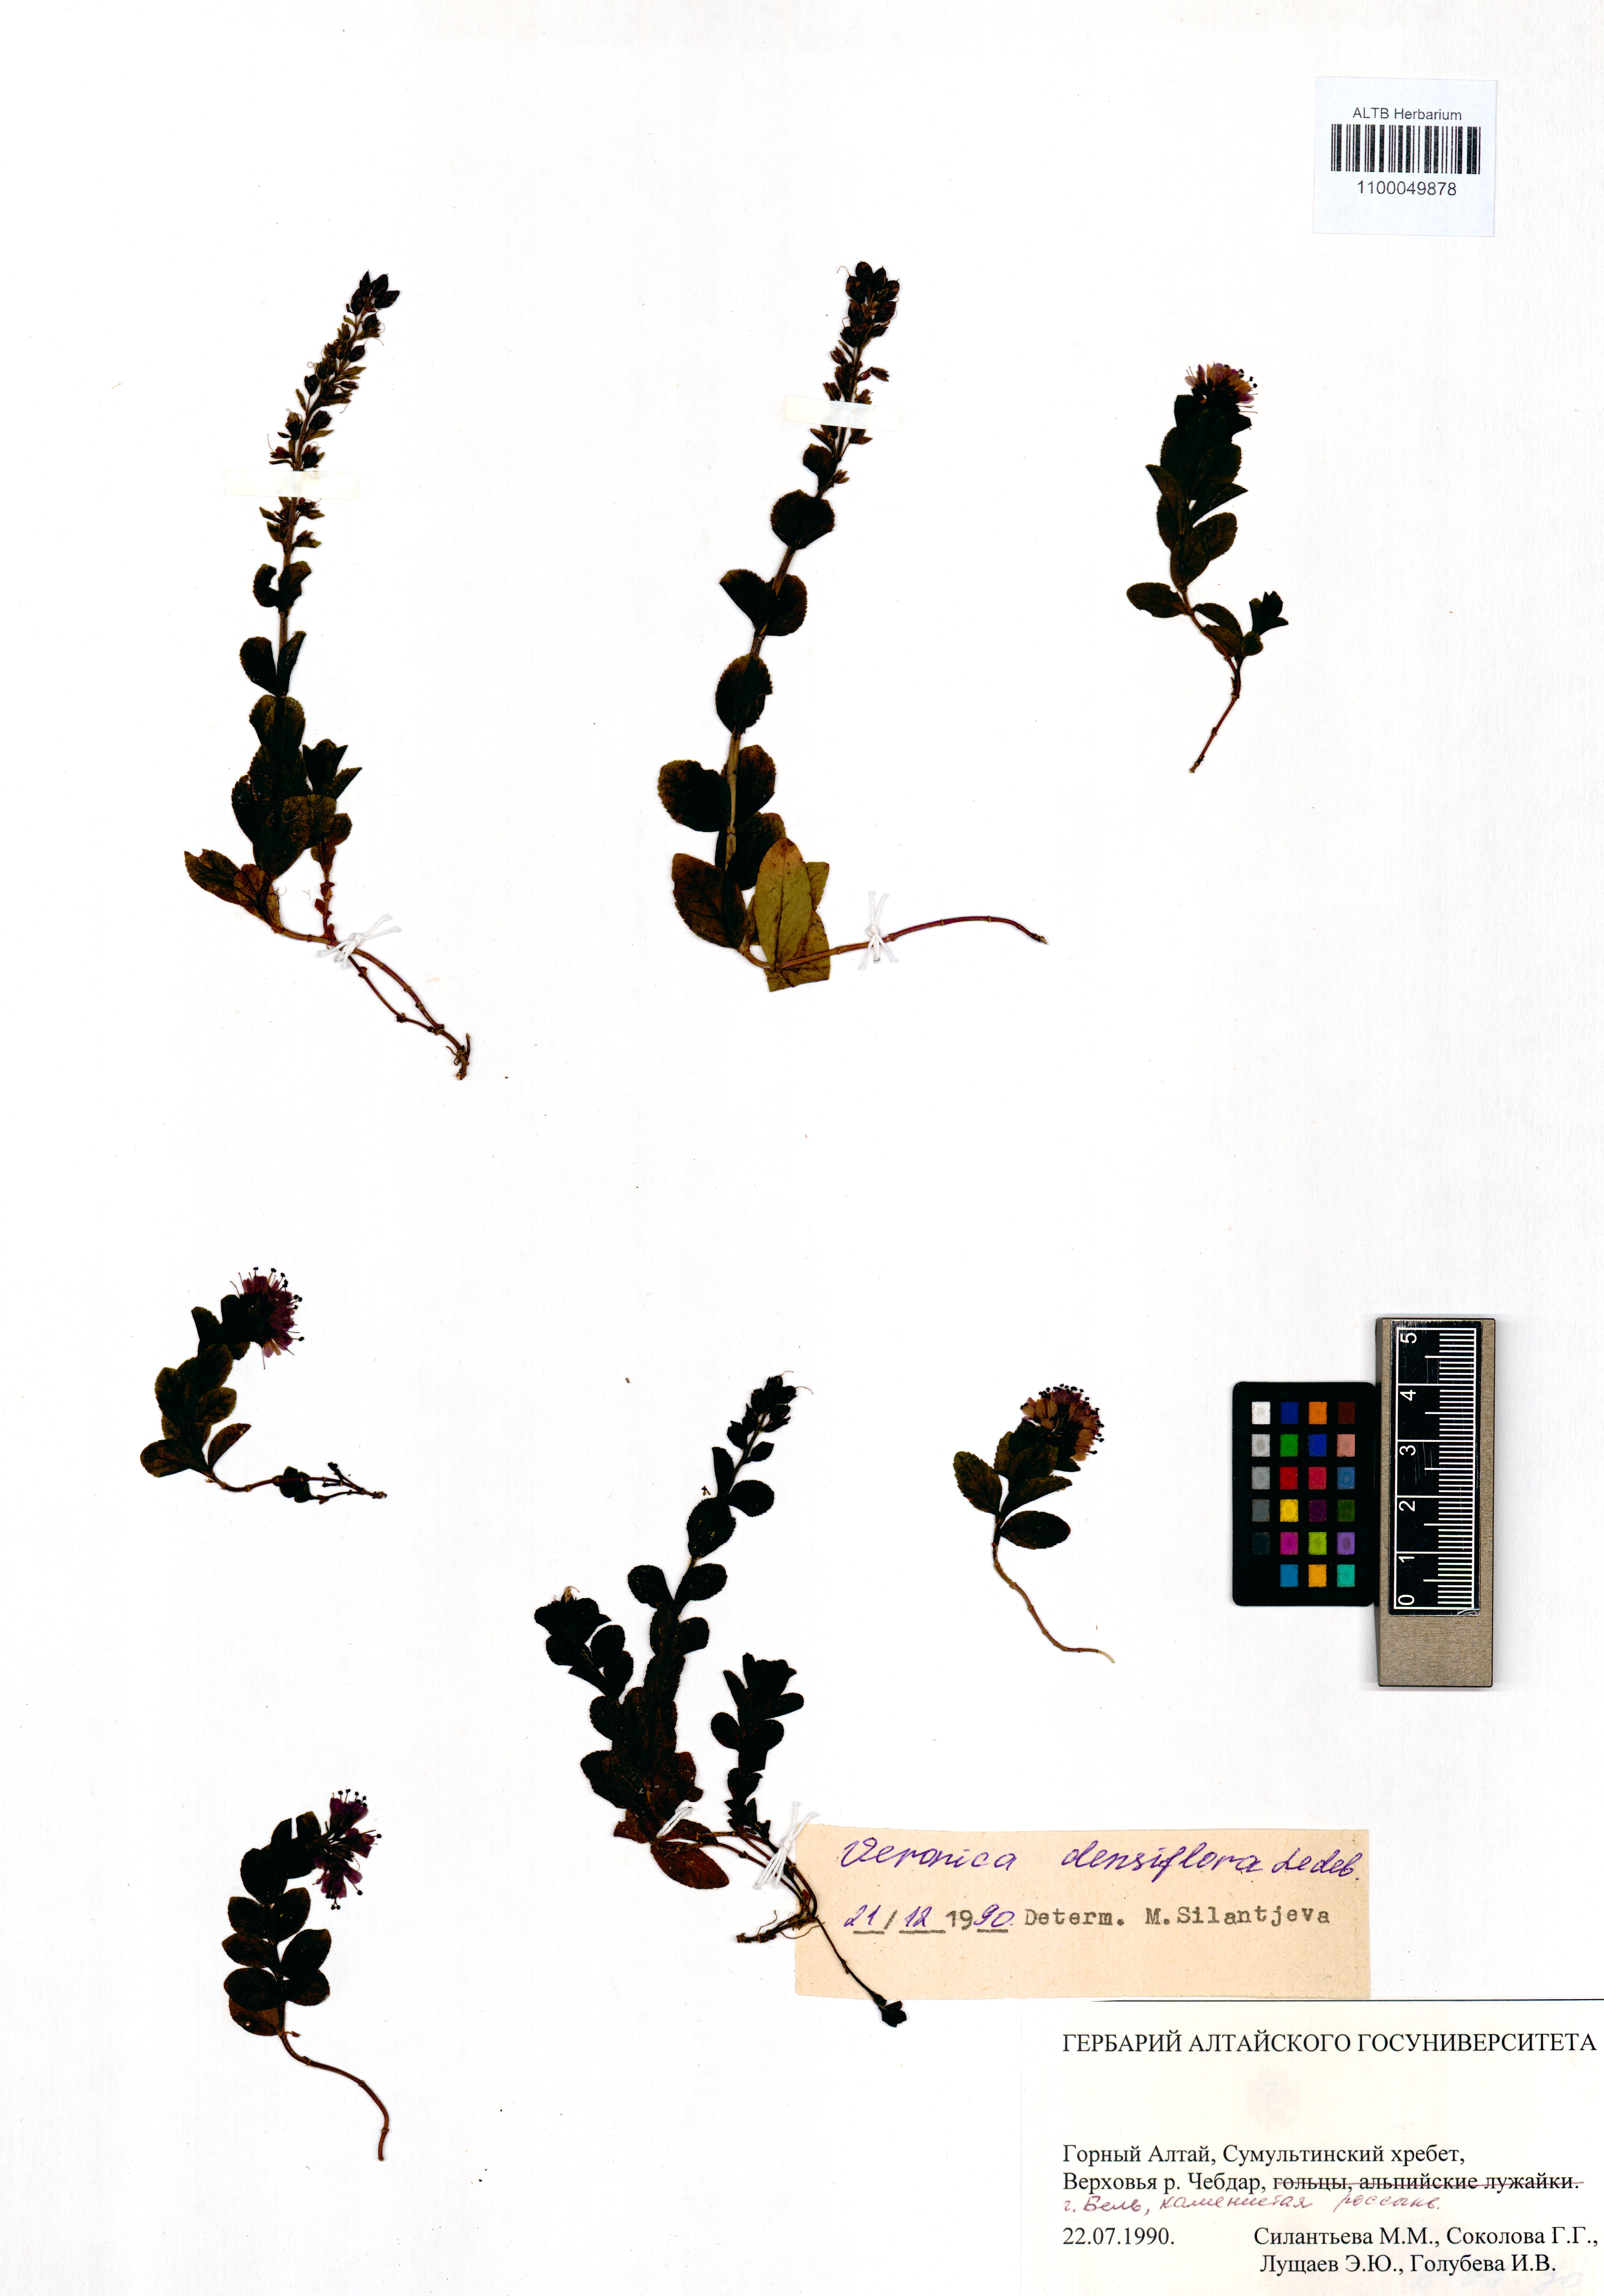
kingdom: Plantae
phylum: Tracheophyta
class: Magnoliopsida
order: Lamiales
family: Plantaginaceae
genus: Veronica
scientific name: Veronica densiflora
